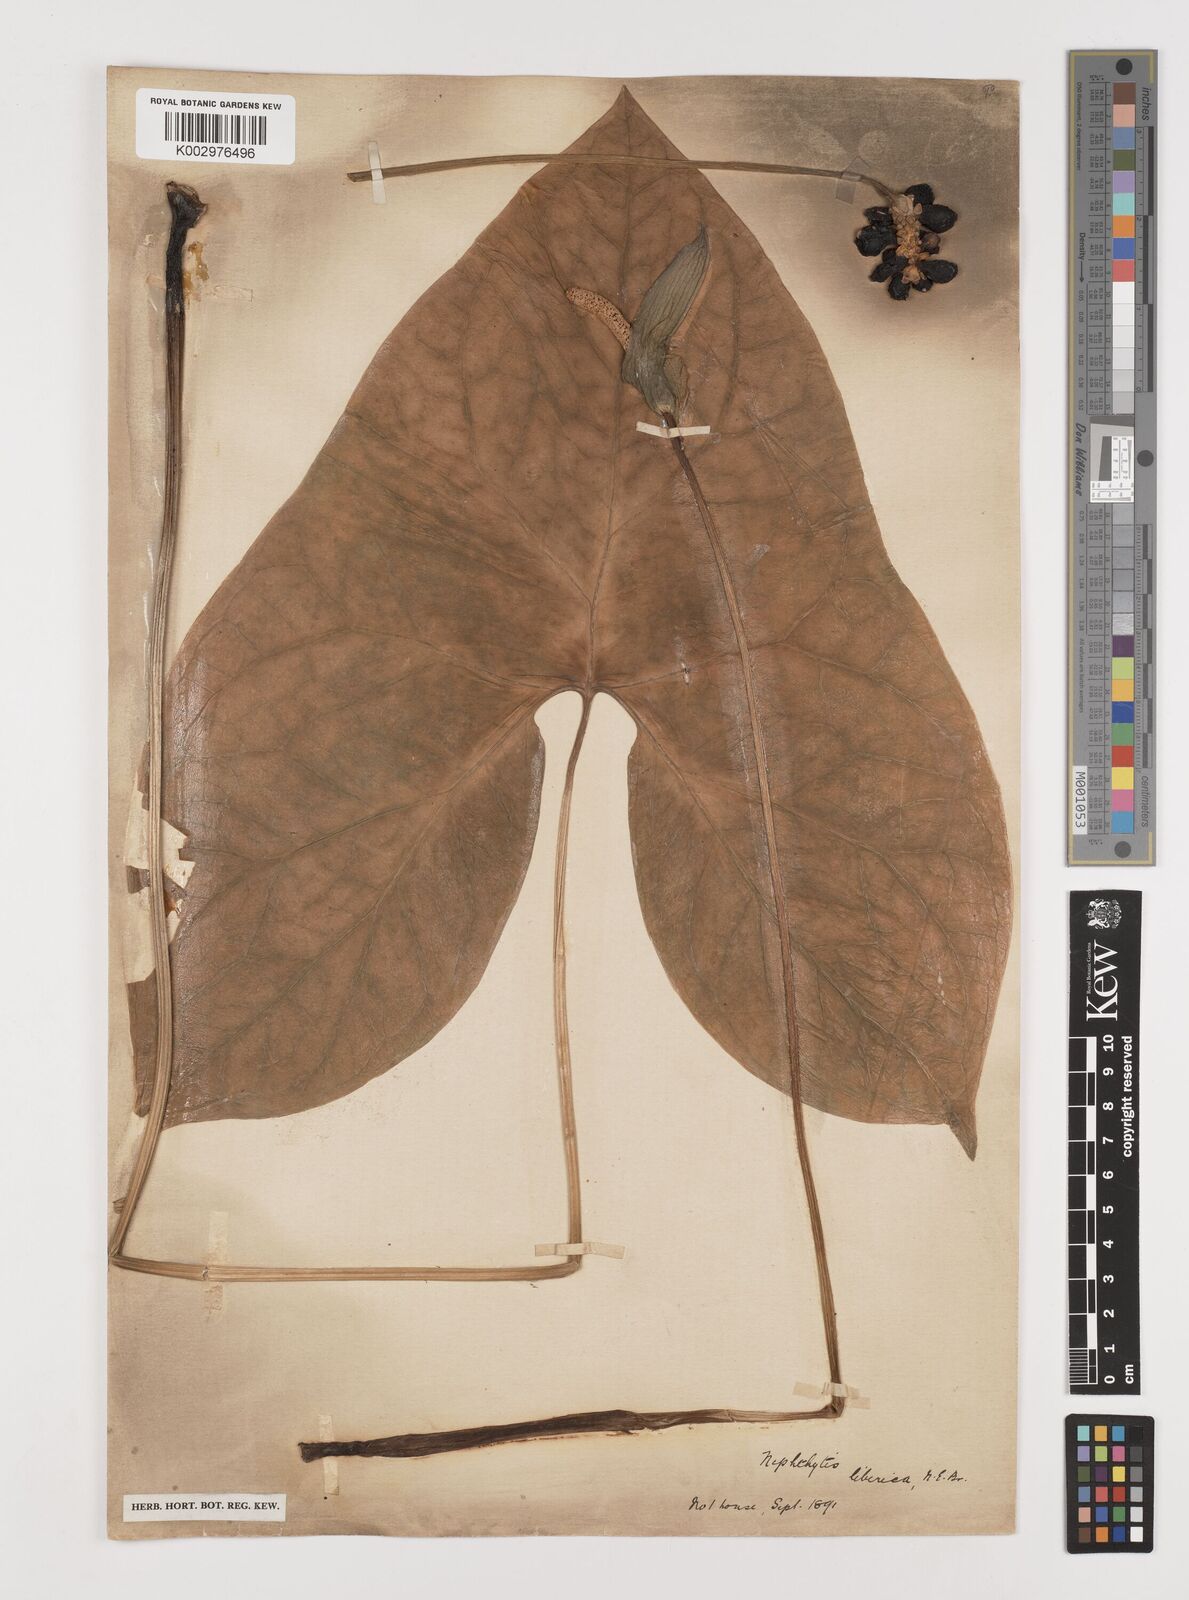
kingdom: Plantae
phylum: Tracheophyta
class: Liliopsida
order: Alismatales
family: Araceae
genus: Nephthytis
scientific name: Nephthytis afzelii
